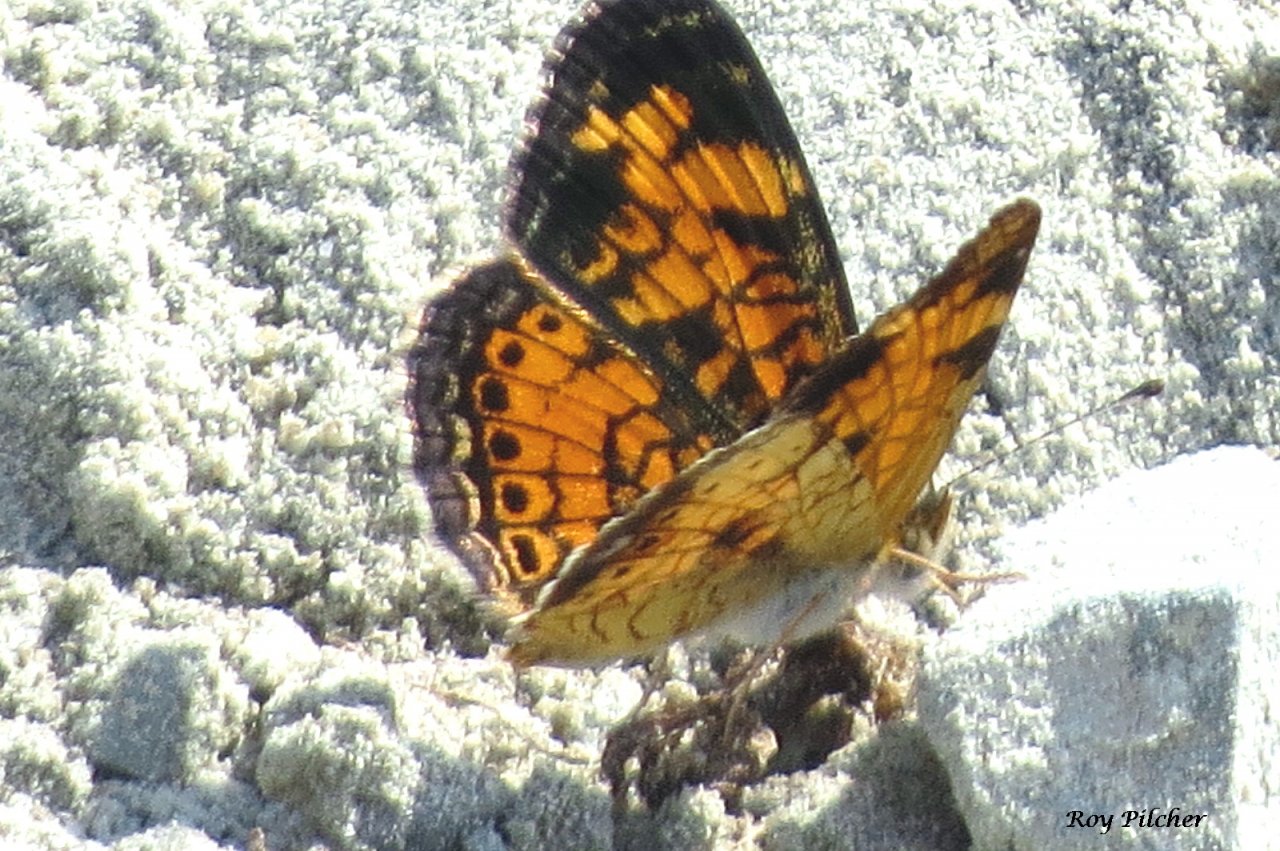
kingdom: Animalia
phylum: Arthropoda
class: Insecta
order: Lepidoptera
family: Nymphalidae
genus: Phyciodes
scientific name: Phyciodes tharos
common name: Pearl Crescent
